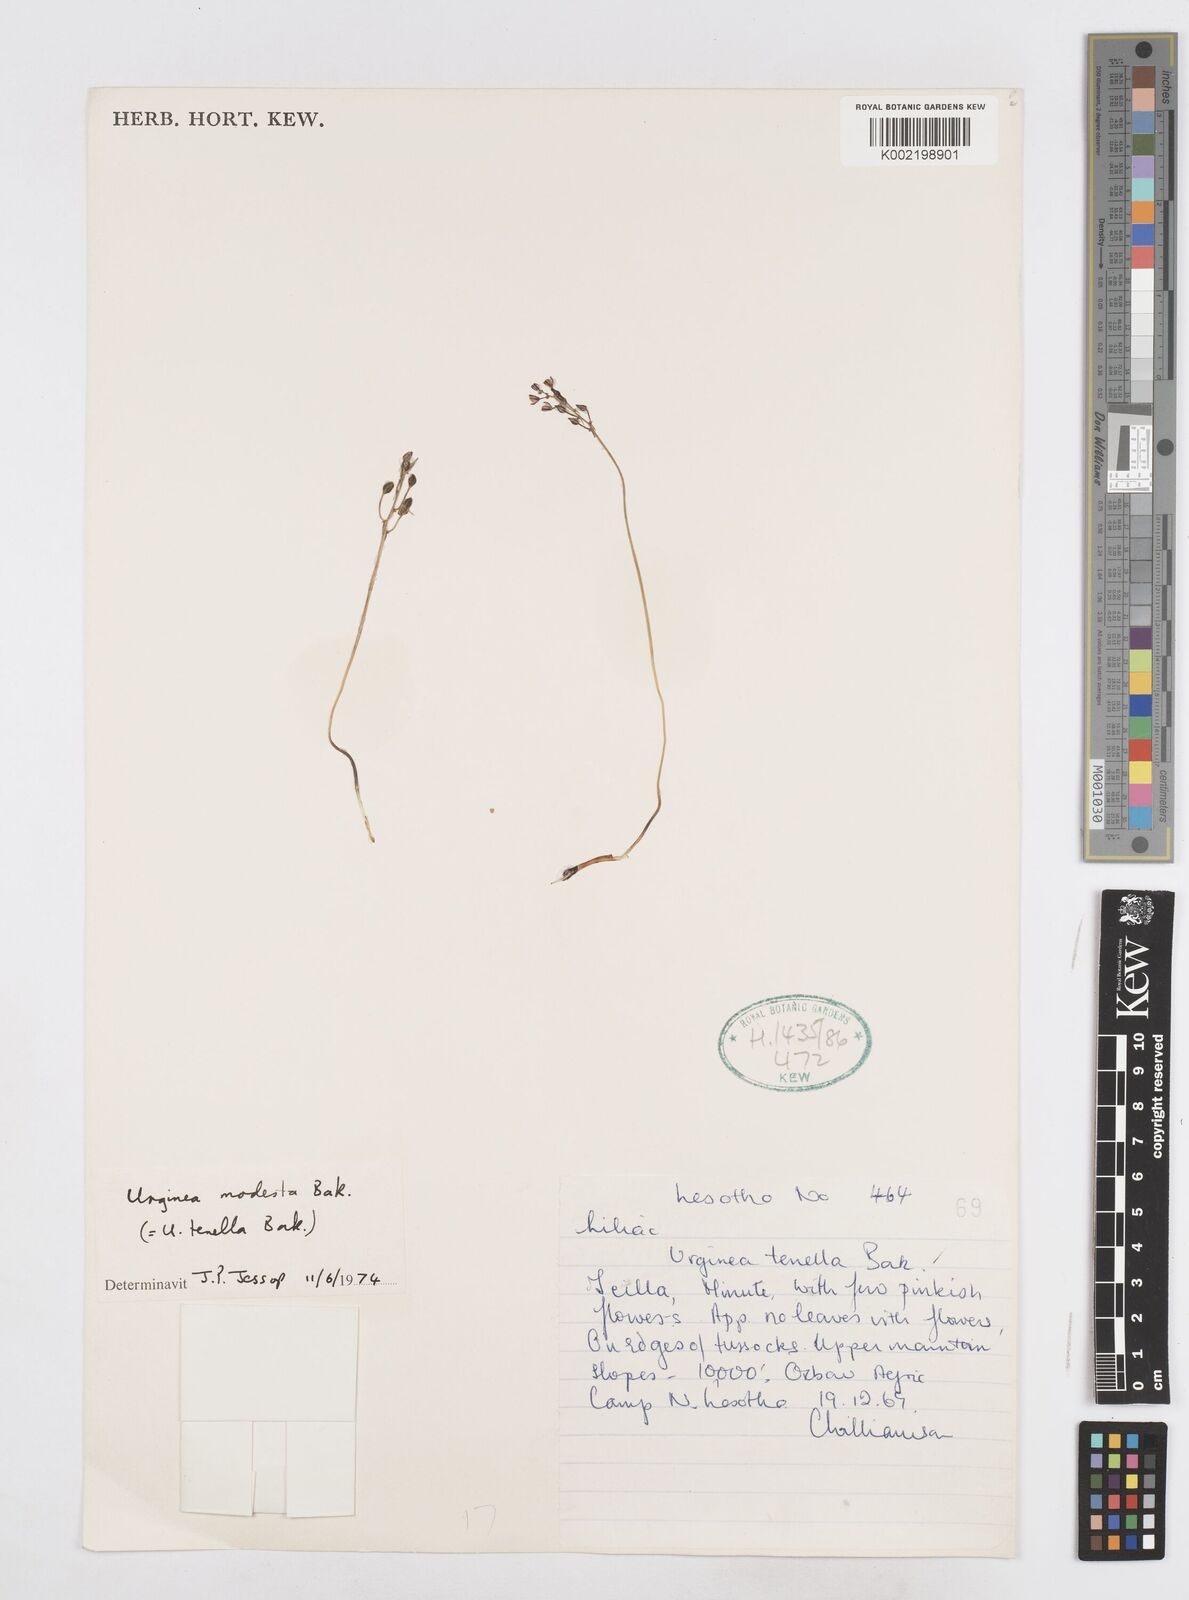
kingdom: Plantae
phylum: Tracheophyta
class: Liliopsida
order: Asparagales
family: Asparagaceae
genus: Drimia
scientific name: Drimia
